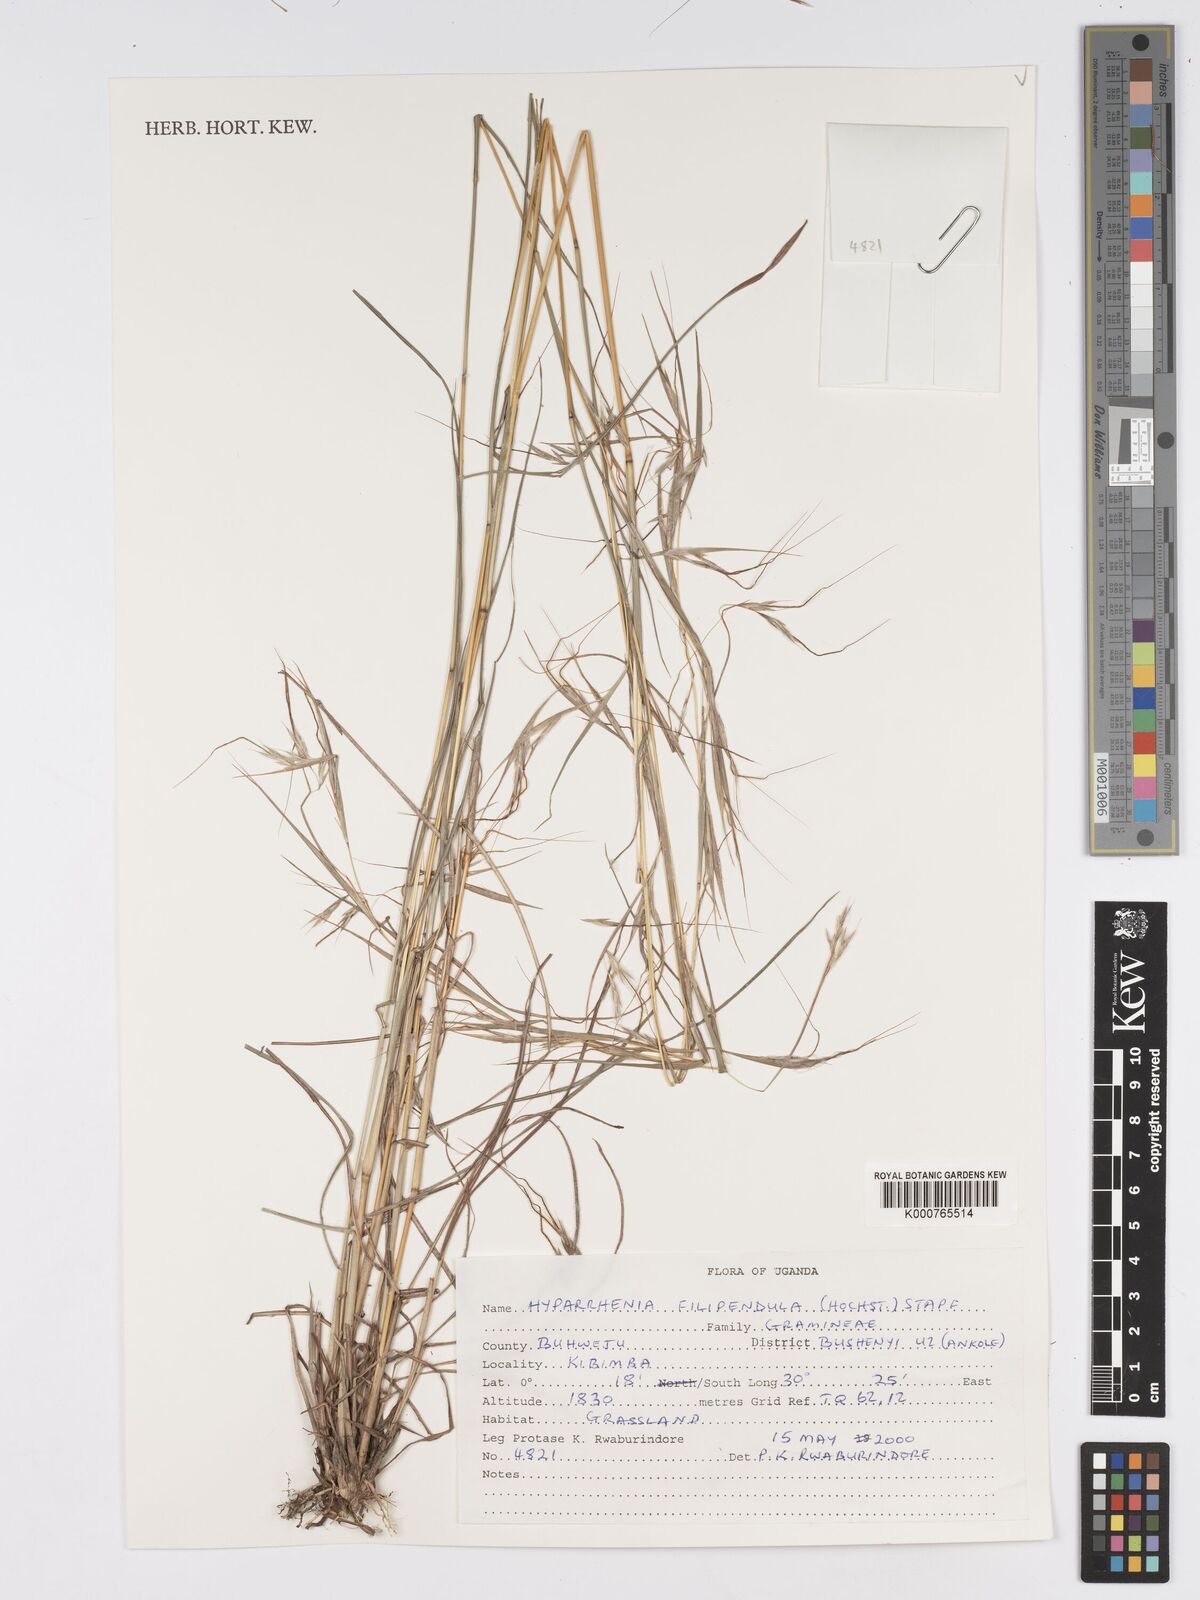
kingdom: Plantae
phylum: Tracheophyta
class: Liliopsida
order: Poales
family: Poaceae
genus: Hyparrhenia
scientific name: Hyparrhenia filipendula
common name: Tambookie grass
